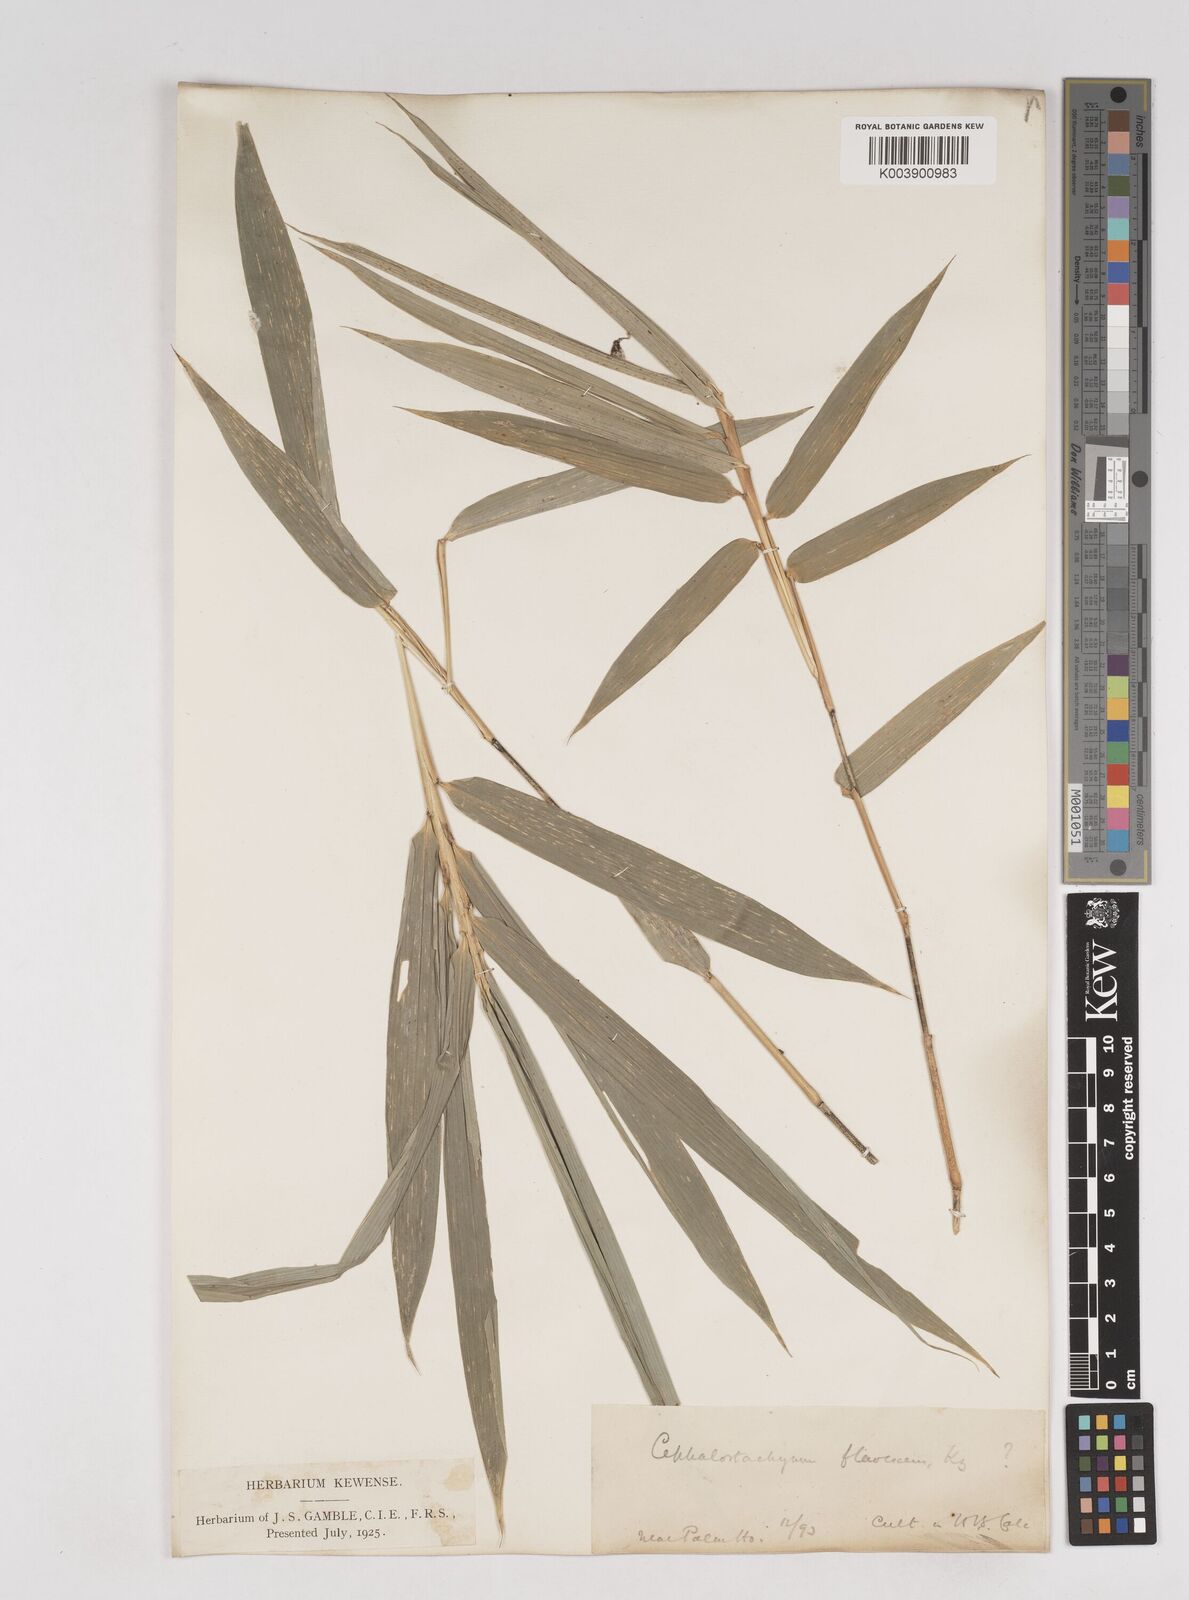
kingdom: Plantae
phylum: Tracheophyta
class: Liliopsida
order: Poales
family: Poaceae
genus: Cephalostachyum
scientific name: Cephalostachyum flavescens
